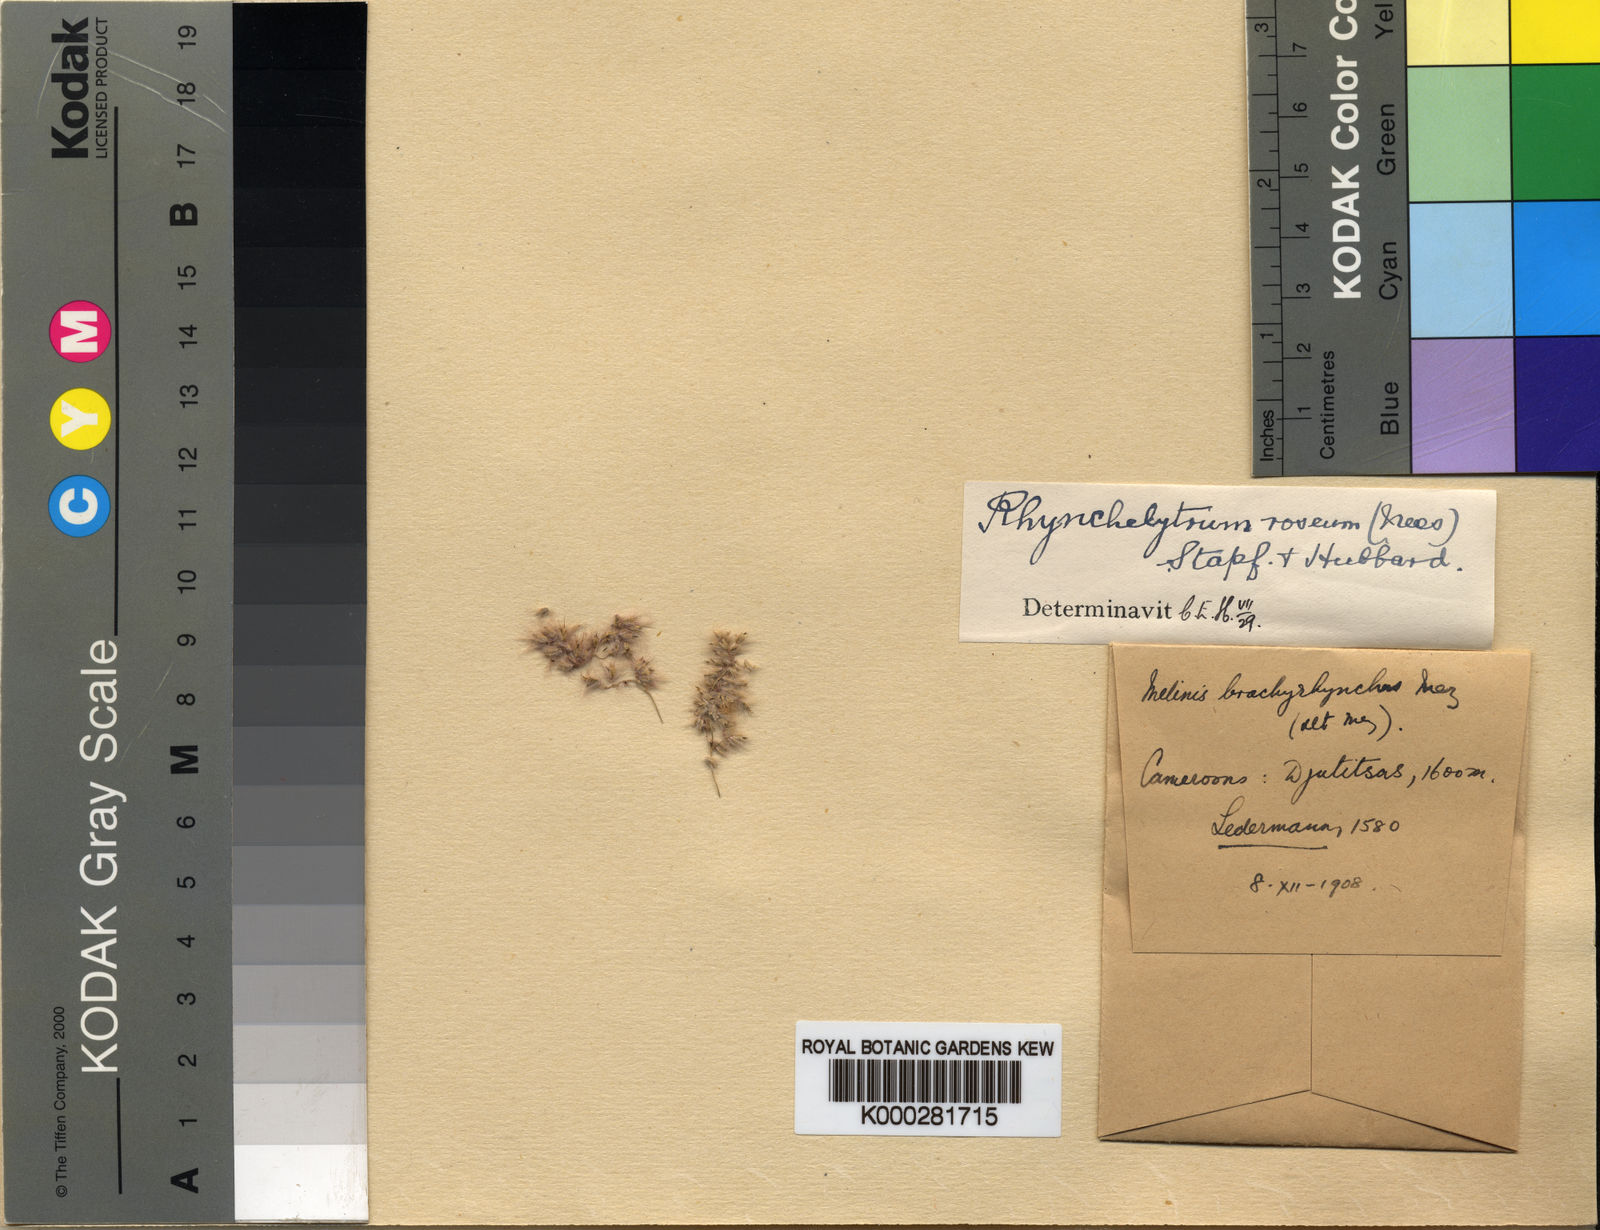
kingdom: Plantae
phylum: Tracheophyta
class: Liliopsida
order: Poales
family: Poaceae
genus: Melinis
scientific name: Melinis repens
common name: Rose natal grass
